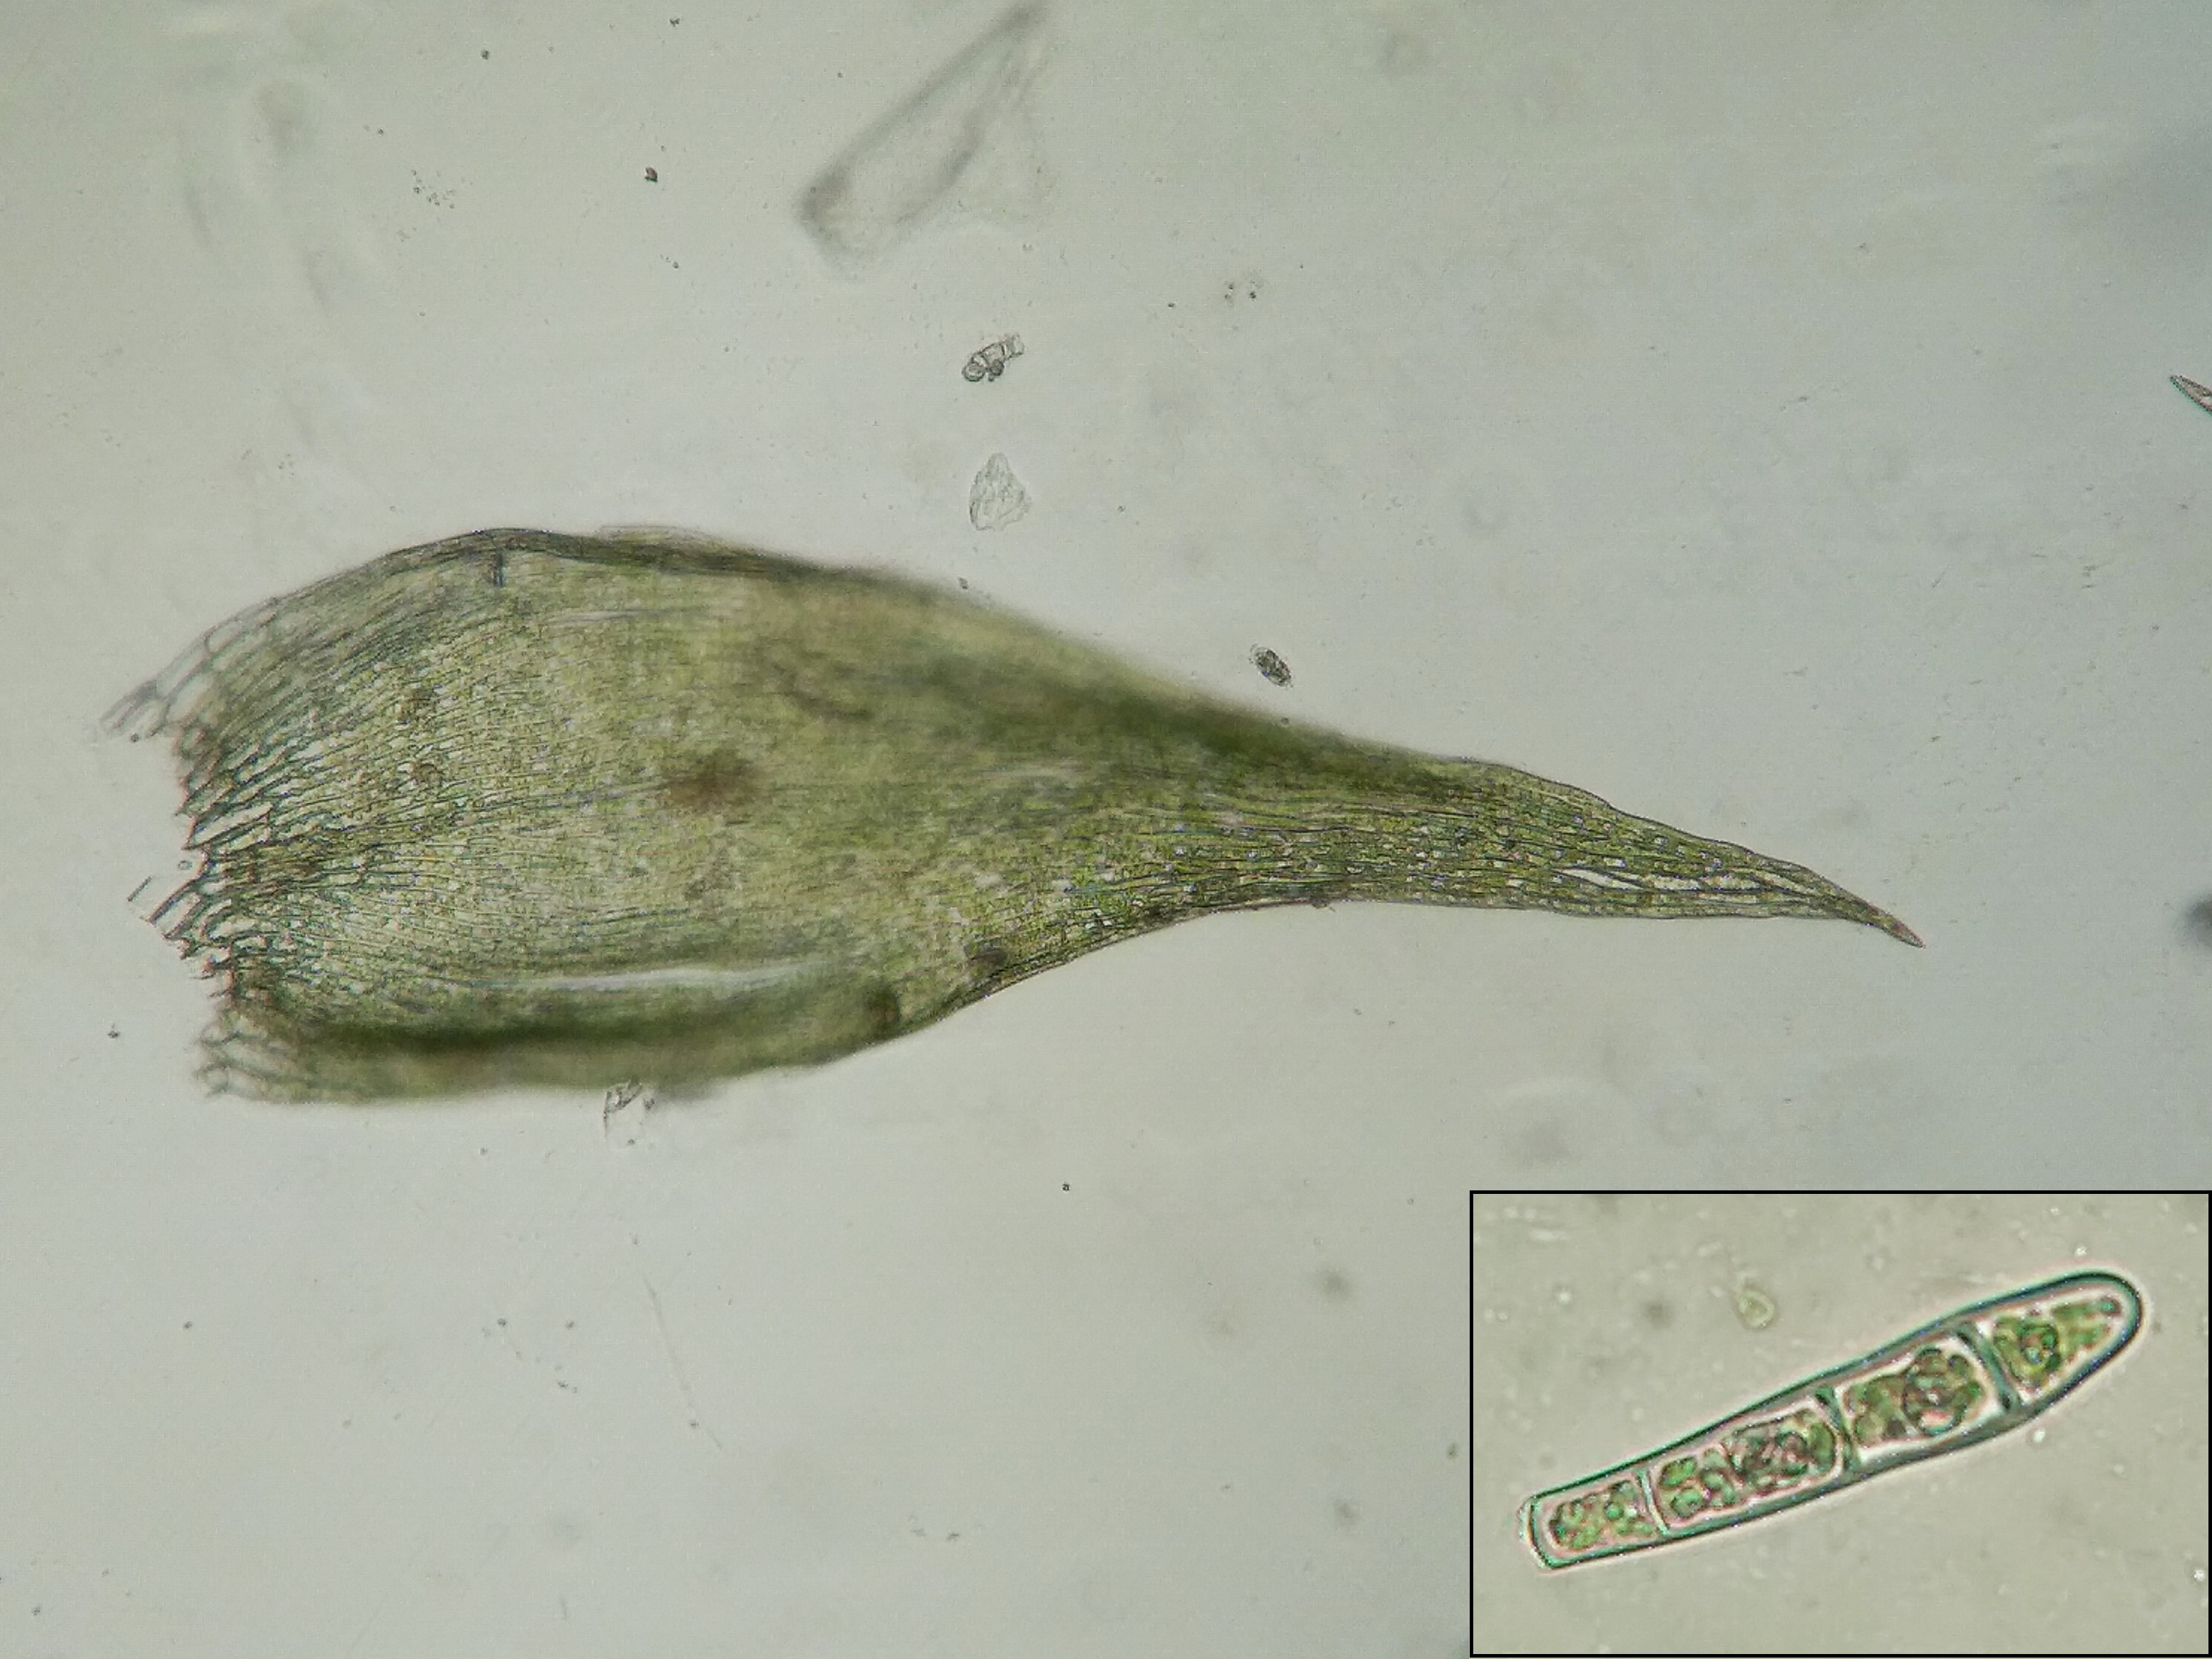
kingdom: Plantae
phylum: Bryophyta
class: Bryopsida
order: Hypnales
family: Plagiotheciaceae
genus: Plagiothecium
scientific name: Plagiothecium latebricola
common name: Spinkel tæppemos
